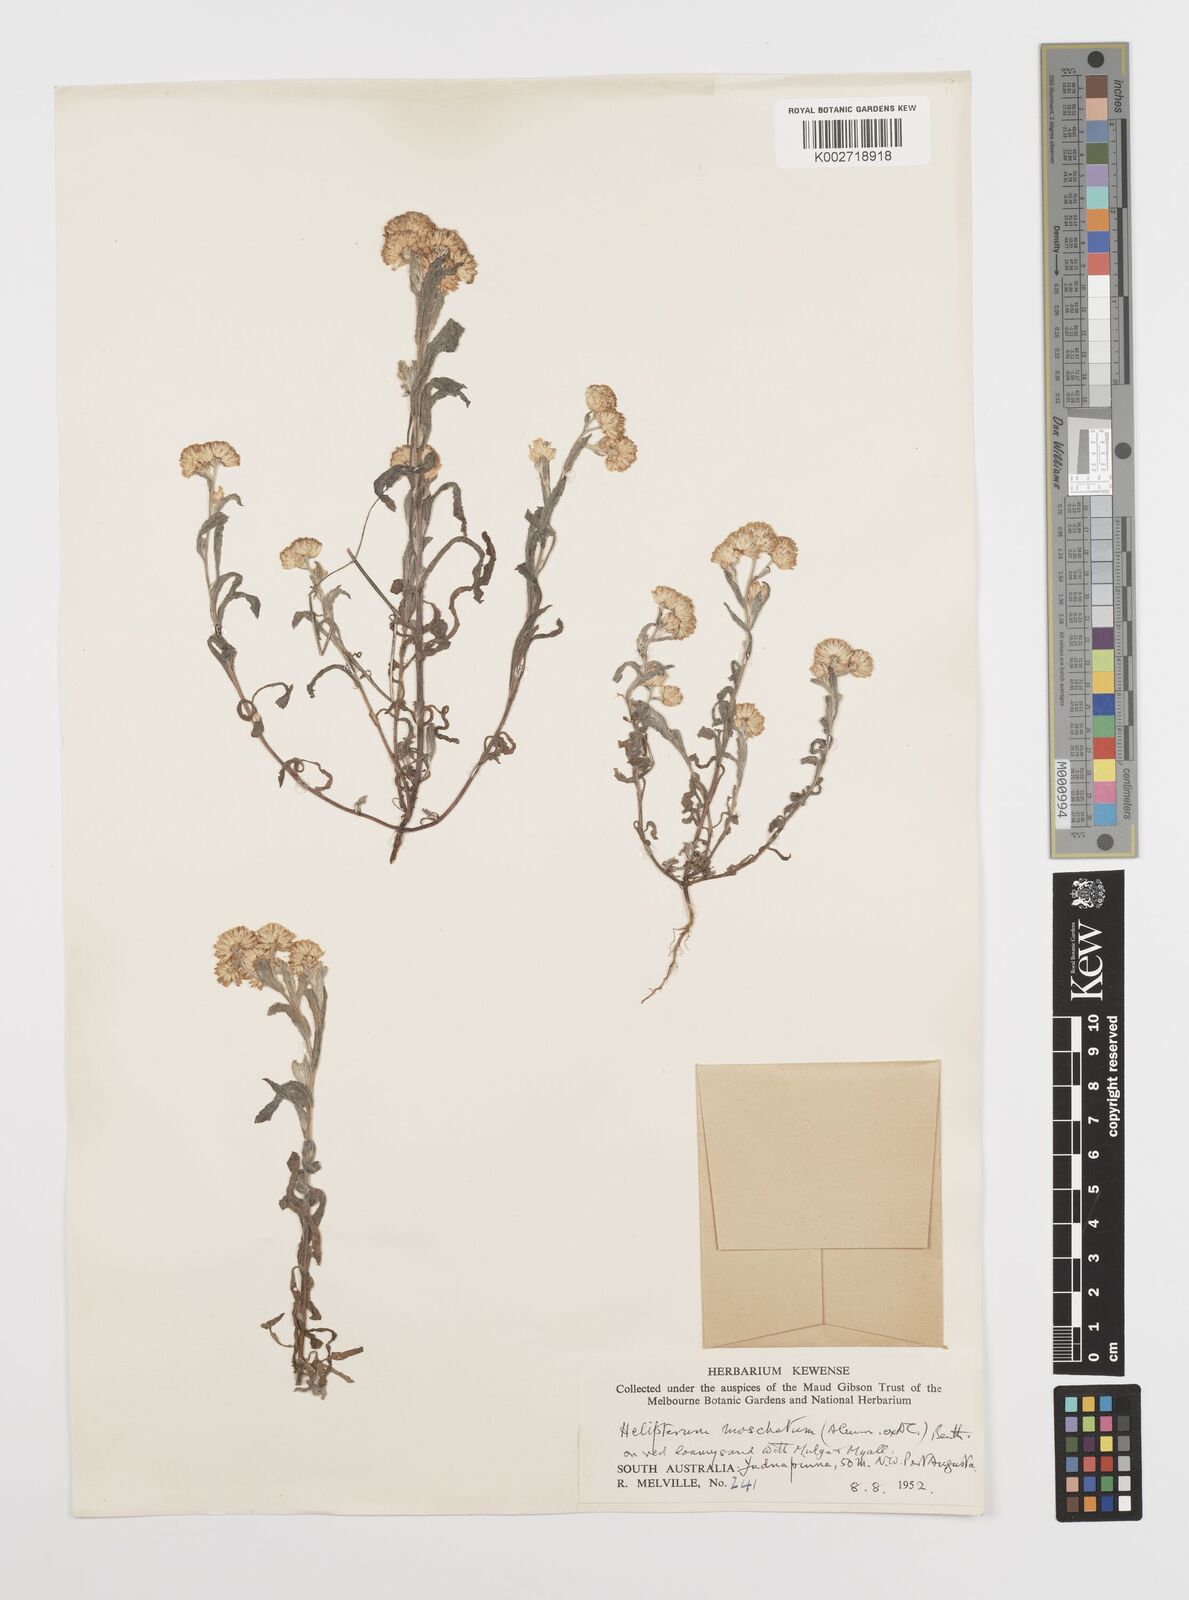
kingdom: Plantae
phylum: Tracheophyta
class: Magnoliopsida
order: Asterales
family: Asteraceae
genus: Rhodanthe
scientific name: Rhodanthe moschata
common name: Musk sunray
